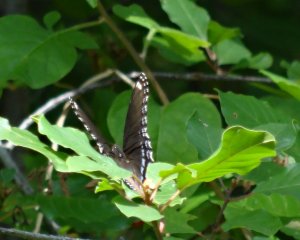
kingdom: Animalia
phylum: Arthropoda
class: Insecta
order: Lepidoptera
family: Nymphalidae
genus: Limenitis
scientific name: Limenitis astyanax
